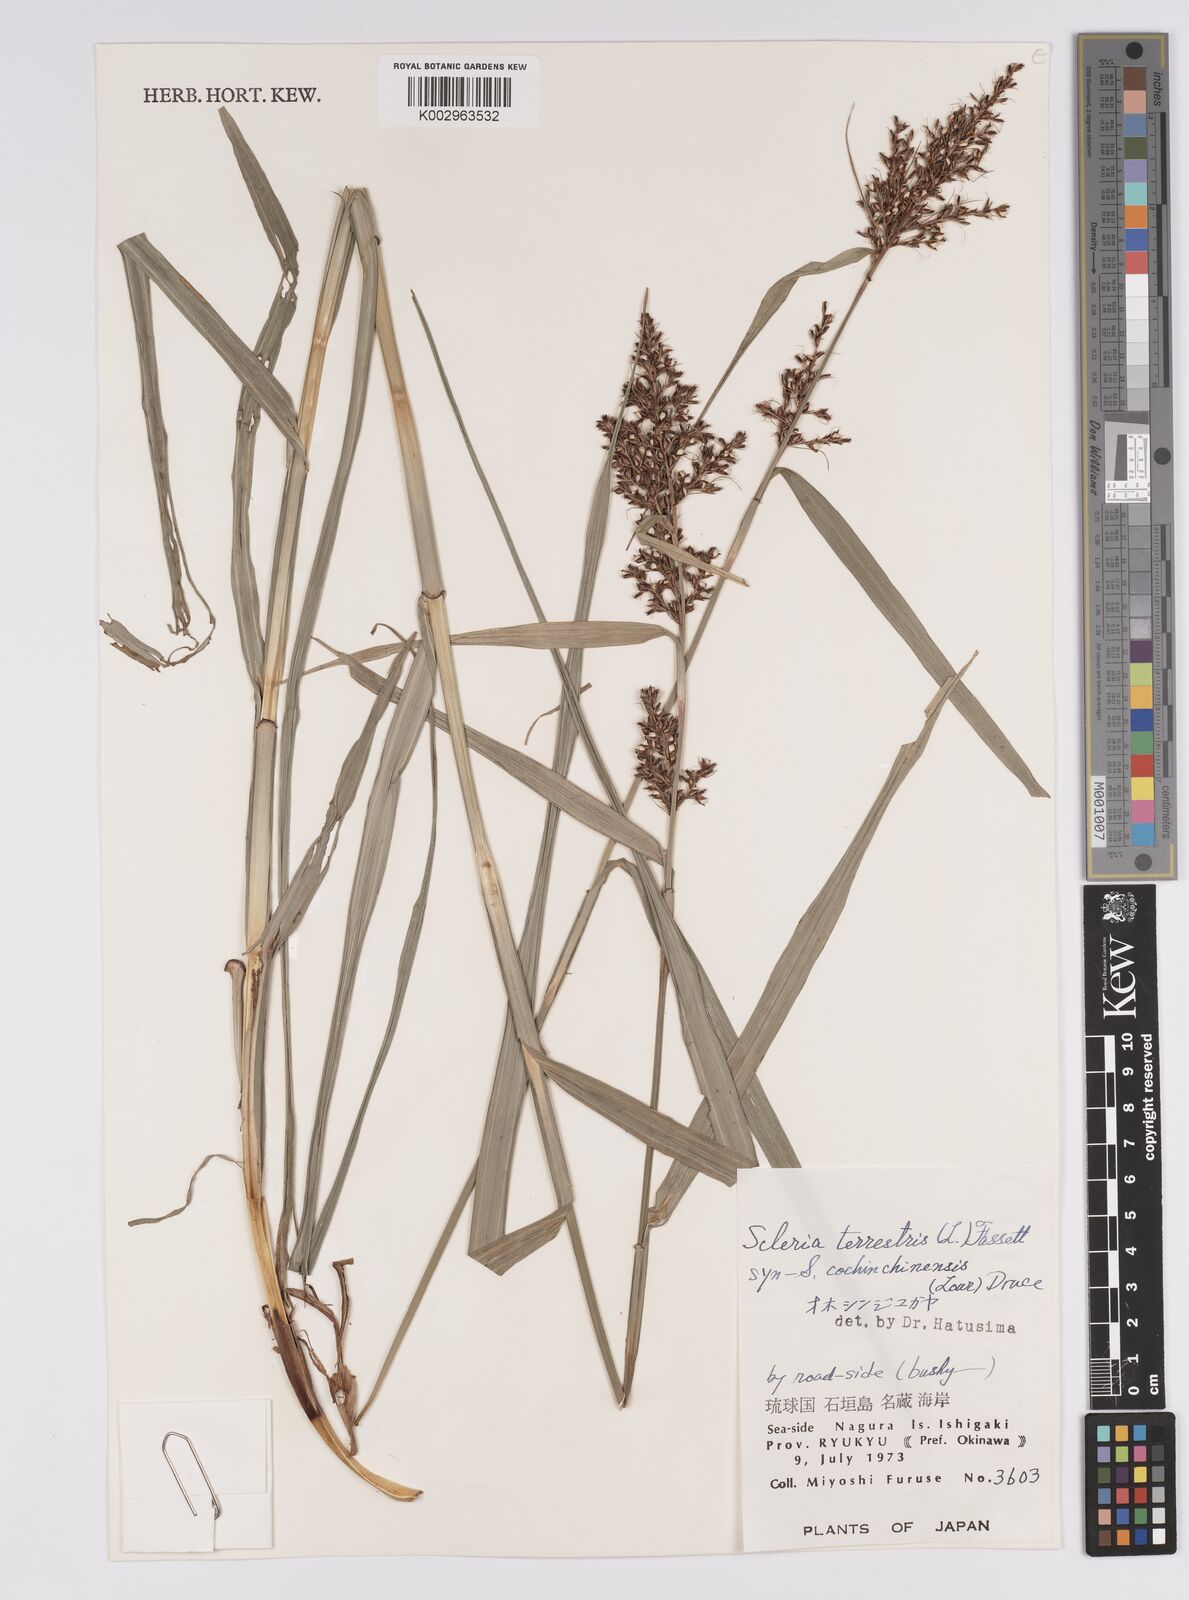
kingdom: Plantae
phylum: Tracheophyta
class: Liliopsida
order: Poales
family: Cyperaceae
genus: Scleria
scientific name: Scleria terrestris
